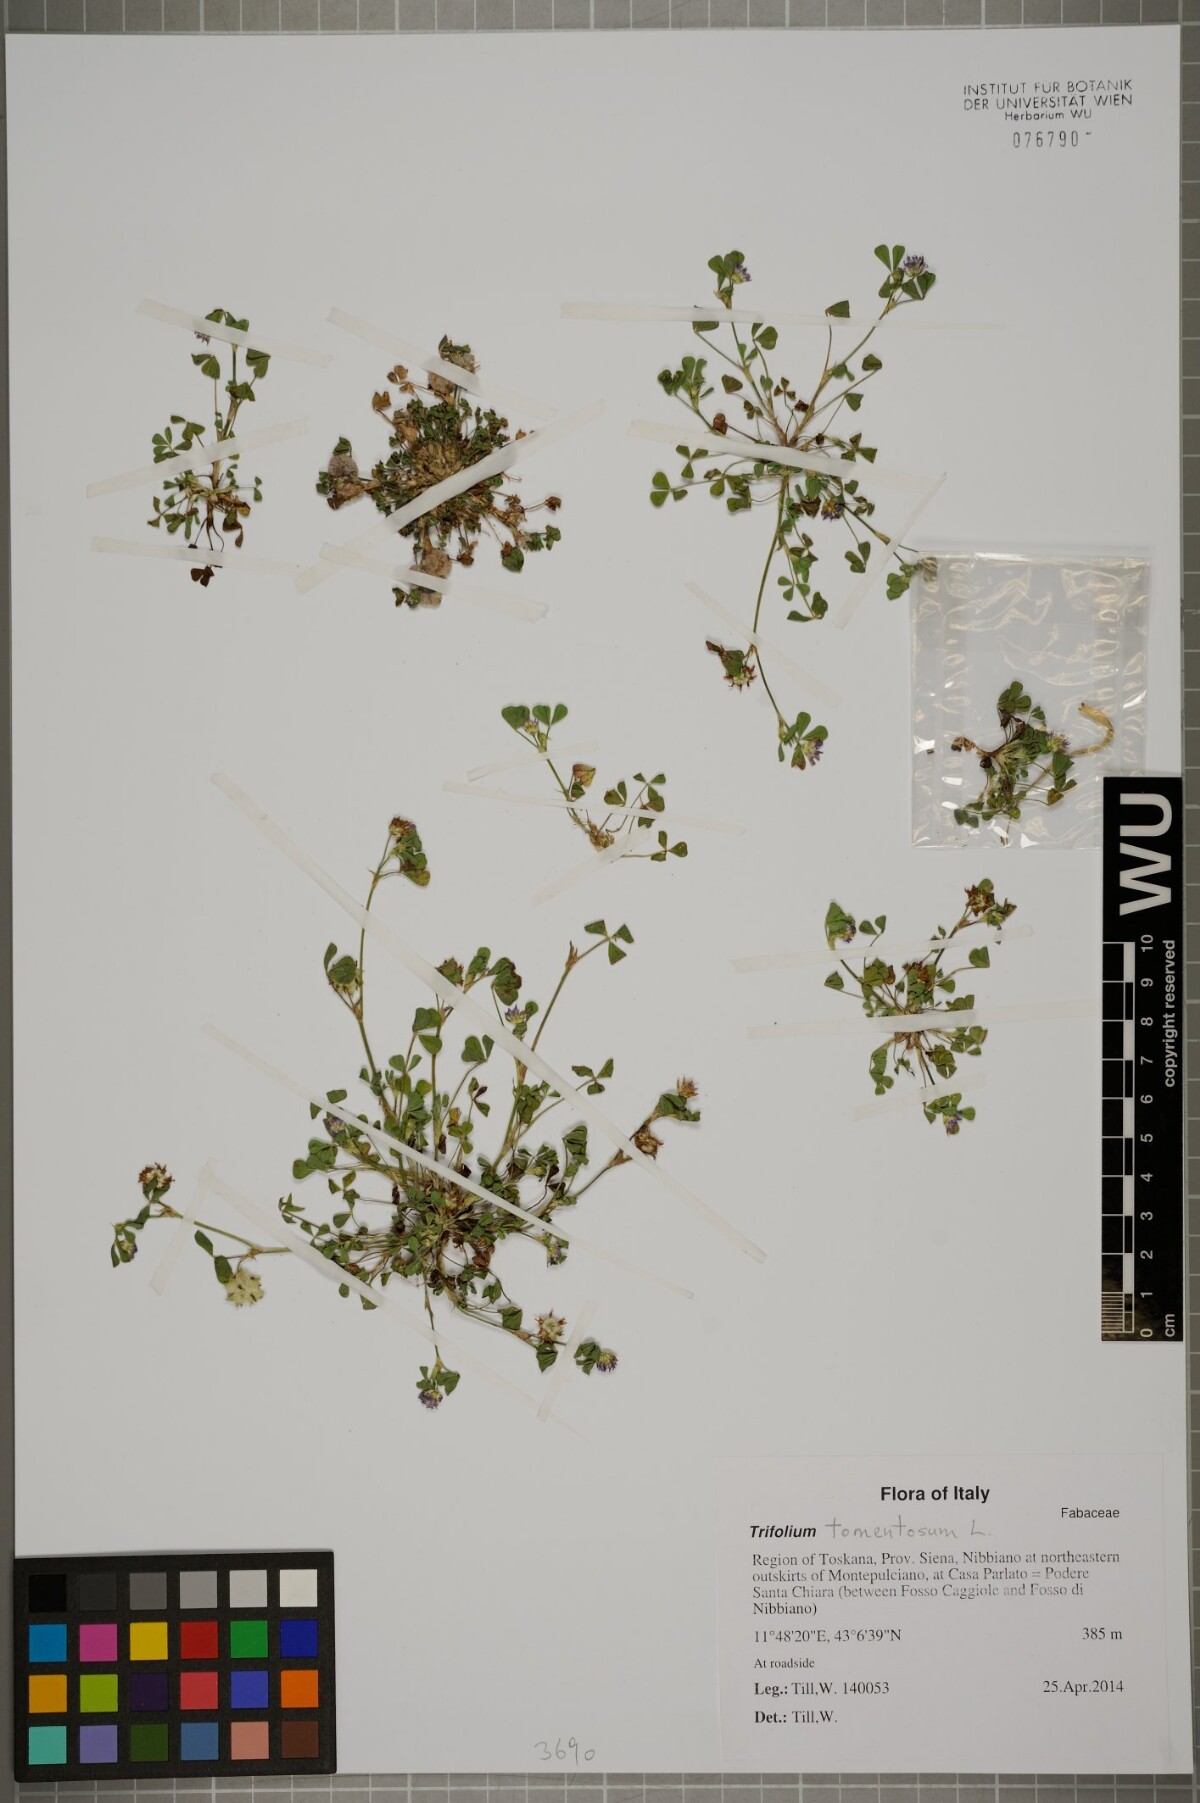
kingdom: Plantae
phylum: Tracheophyta
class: Magnoliopsida
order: Fabales
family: Fabaceae
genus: Trifolium
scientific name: Trifolium tomentosum
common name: Woolly clover
